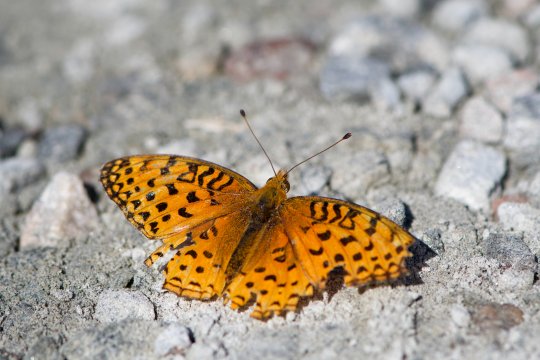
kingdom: Animalia
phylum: Arthropoda
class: Insecta
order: Lepidoptera
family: Nymphalidae
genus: Speyeria
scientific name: Speyeria aphrodite
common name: Aphrodite Fritillary
